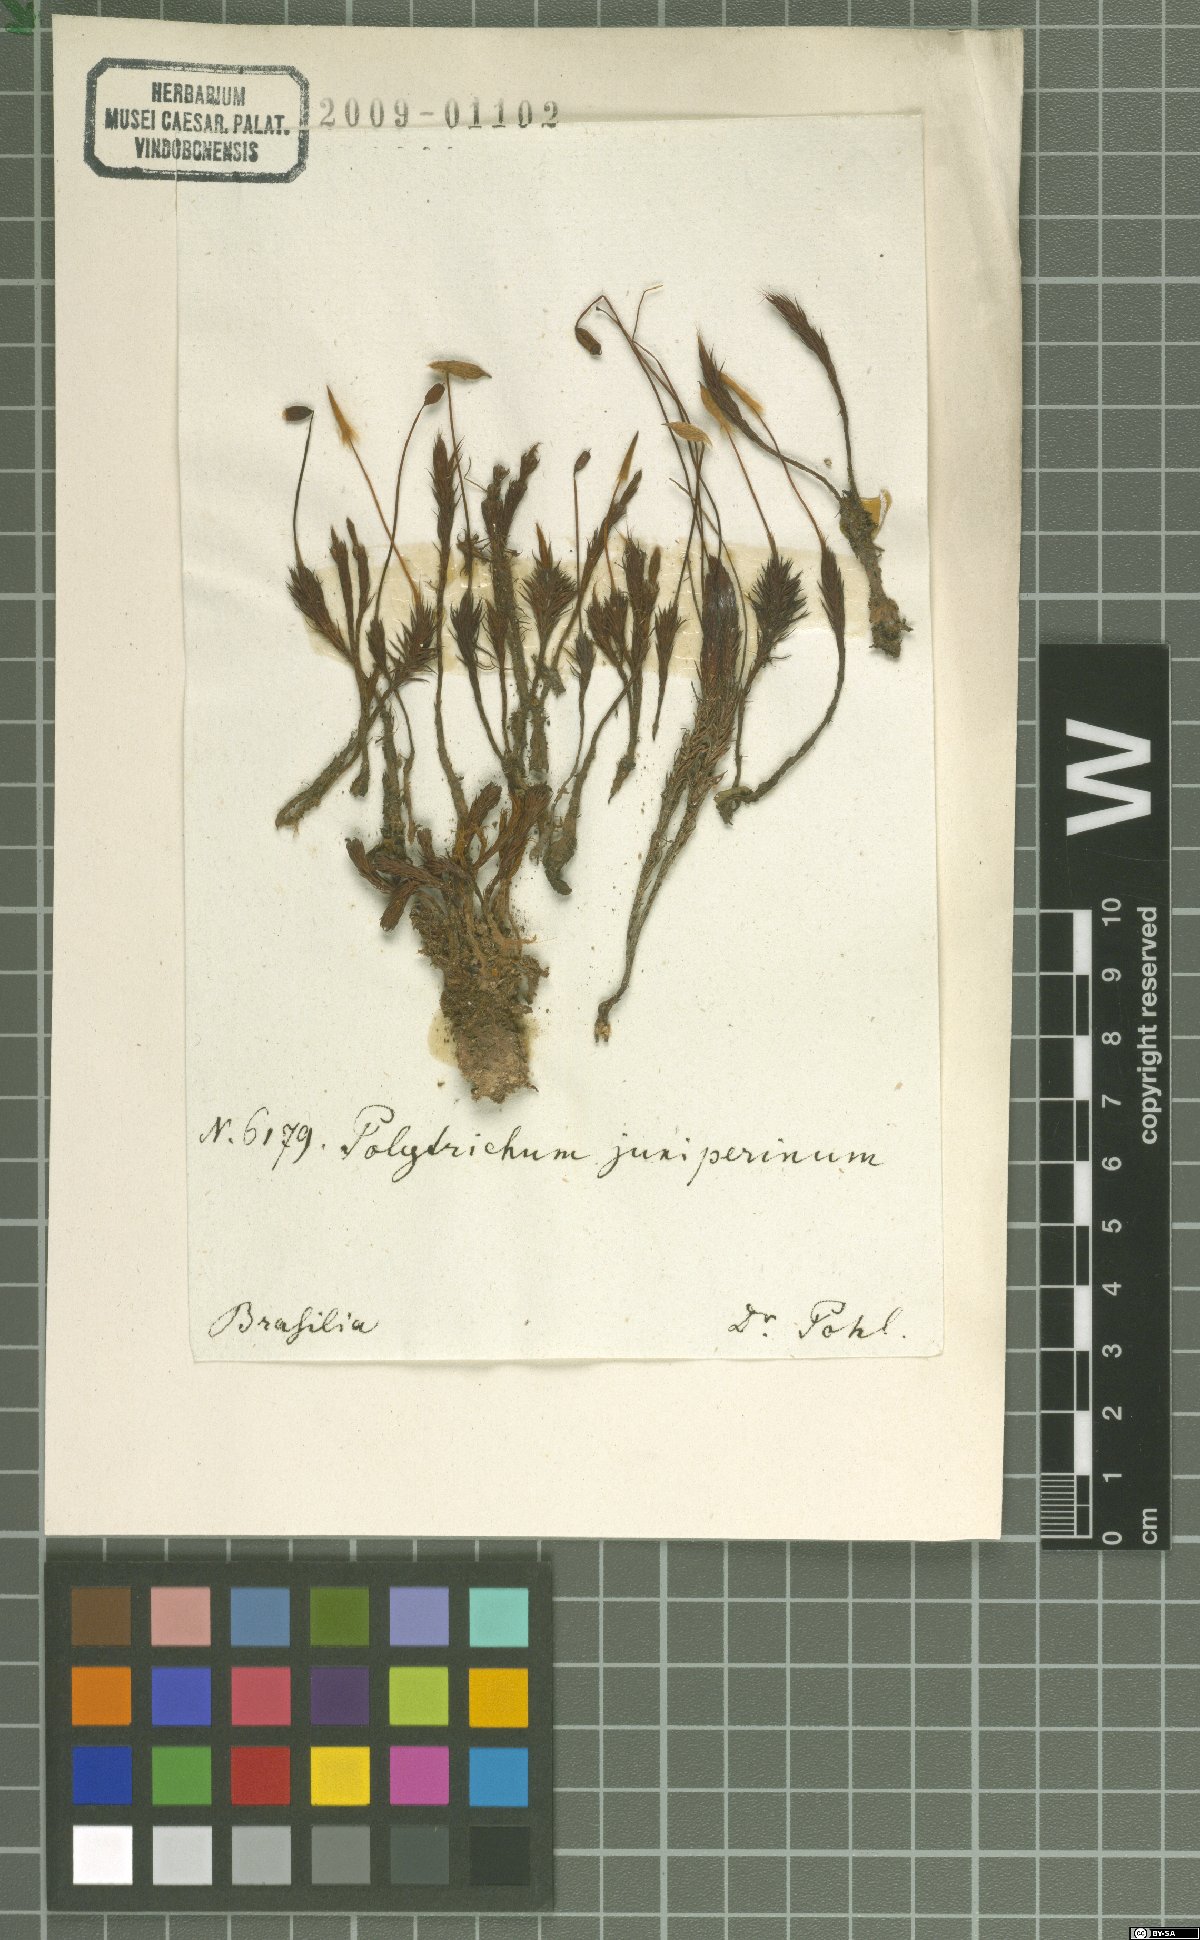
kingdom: Plantae
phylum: Bryophyta
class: Polytrichopsida
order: Polytrichales
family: Polytrichaceae
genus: Polytrichum
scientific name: Polytrichum juniperinum
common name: Juniper haircap moss
